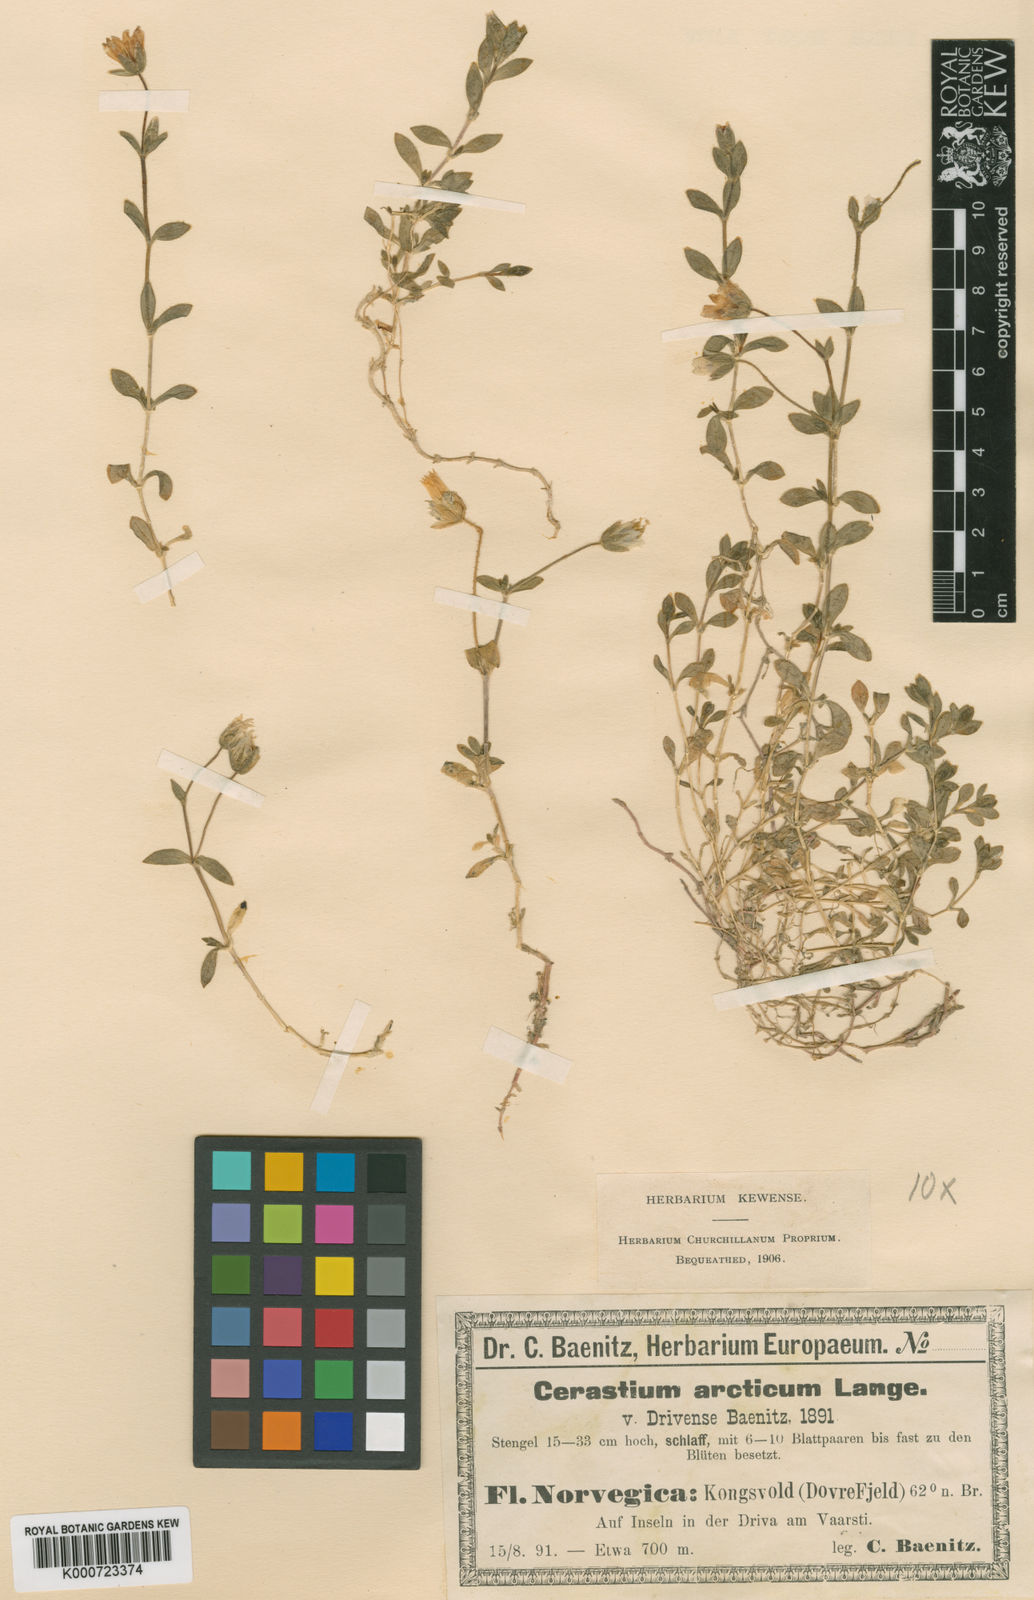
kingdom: Plantae
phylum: Tracheophyta
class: Magnoliopsida
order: Caryophyllales
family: Caryophyllaceae
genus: Cerastium
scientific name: Cerastium arcticum
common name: Arctic mouse-ear
